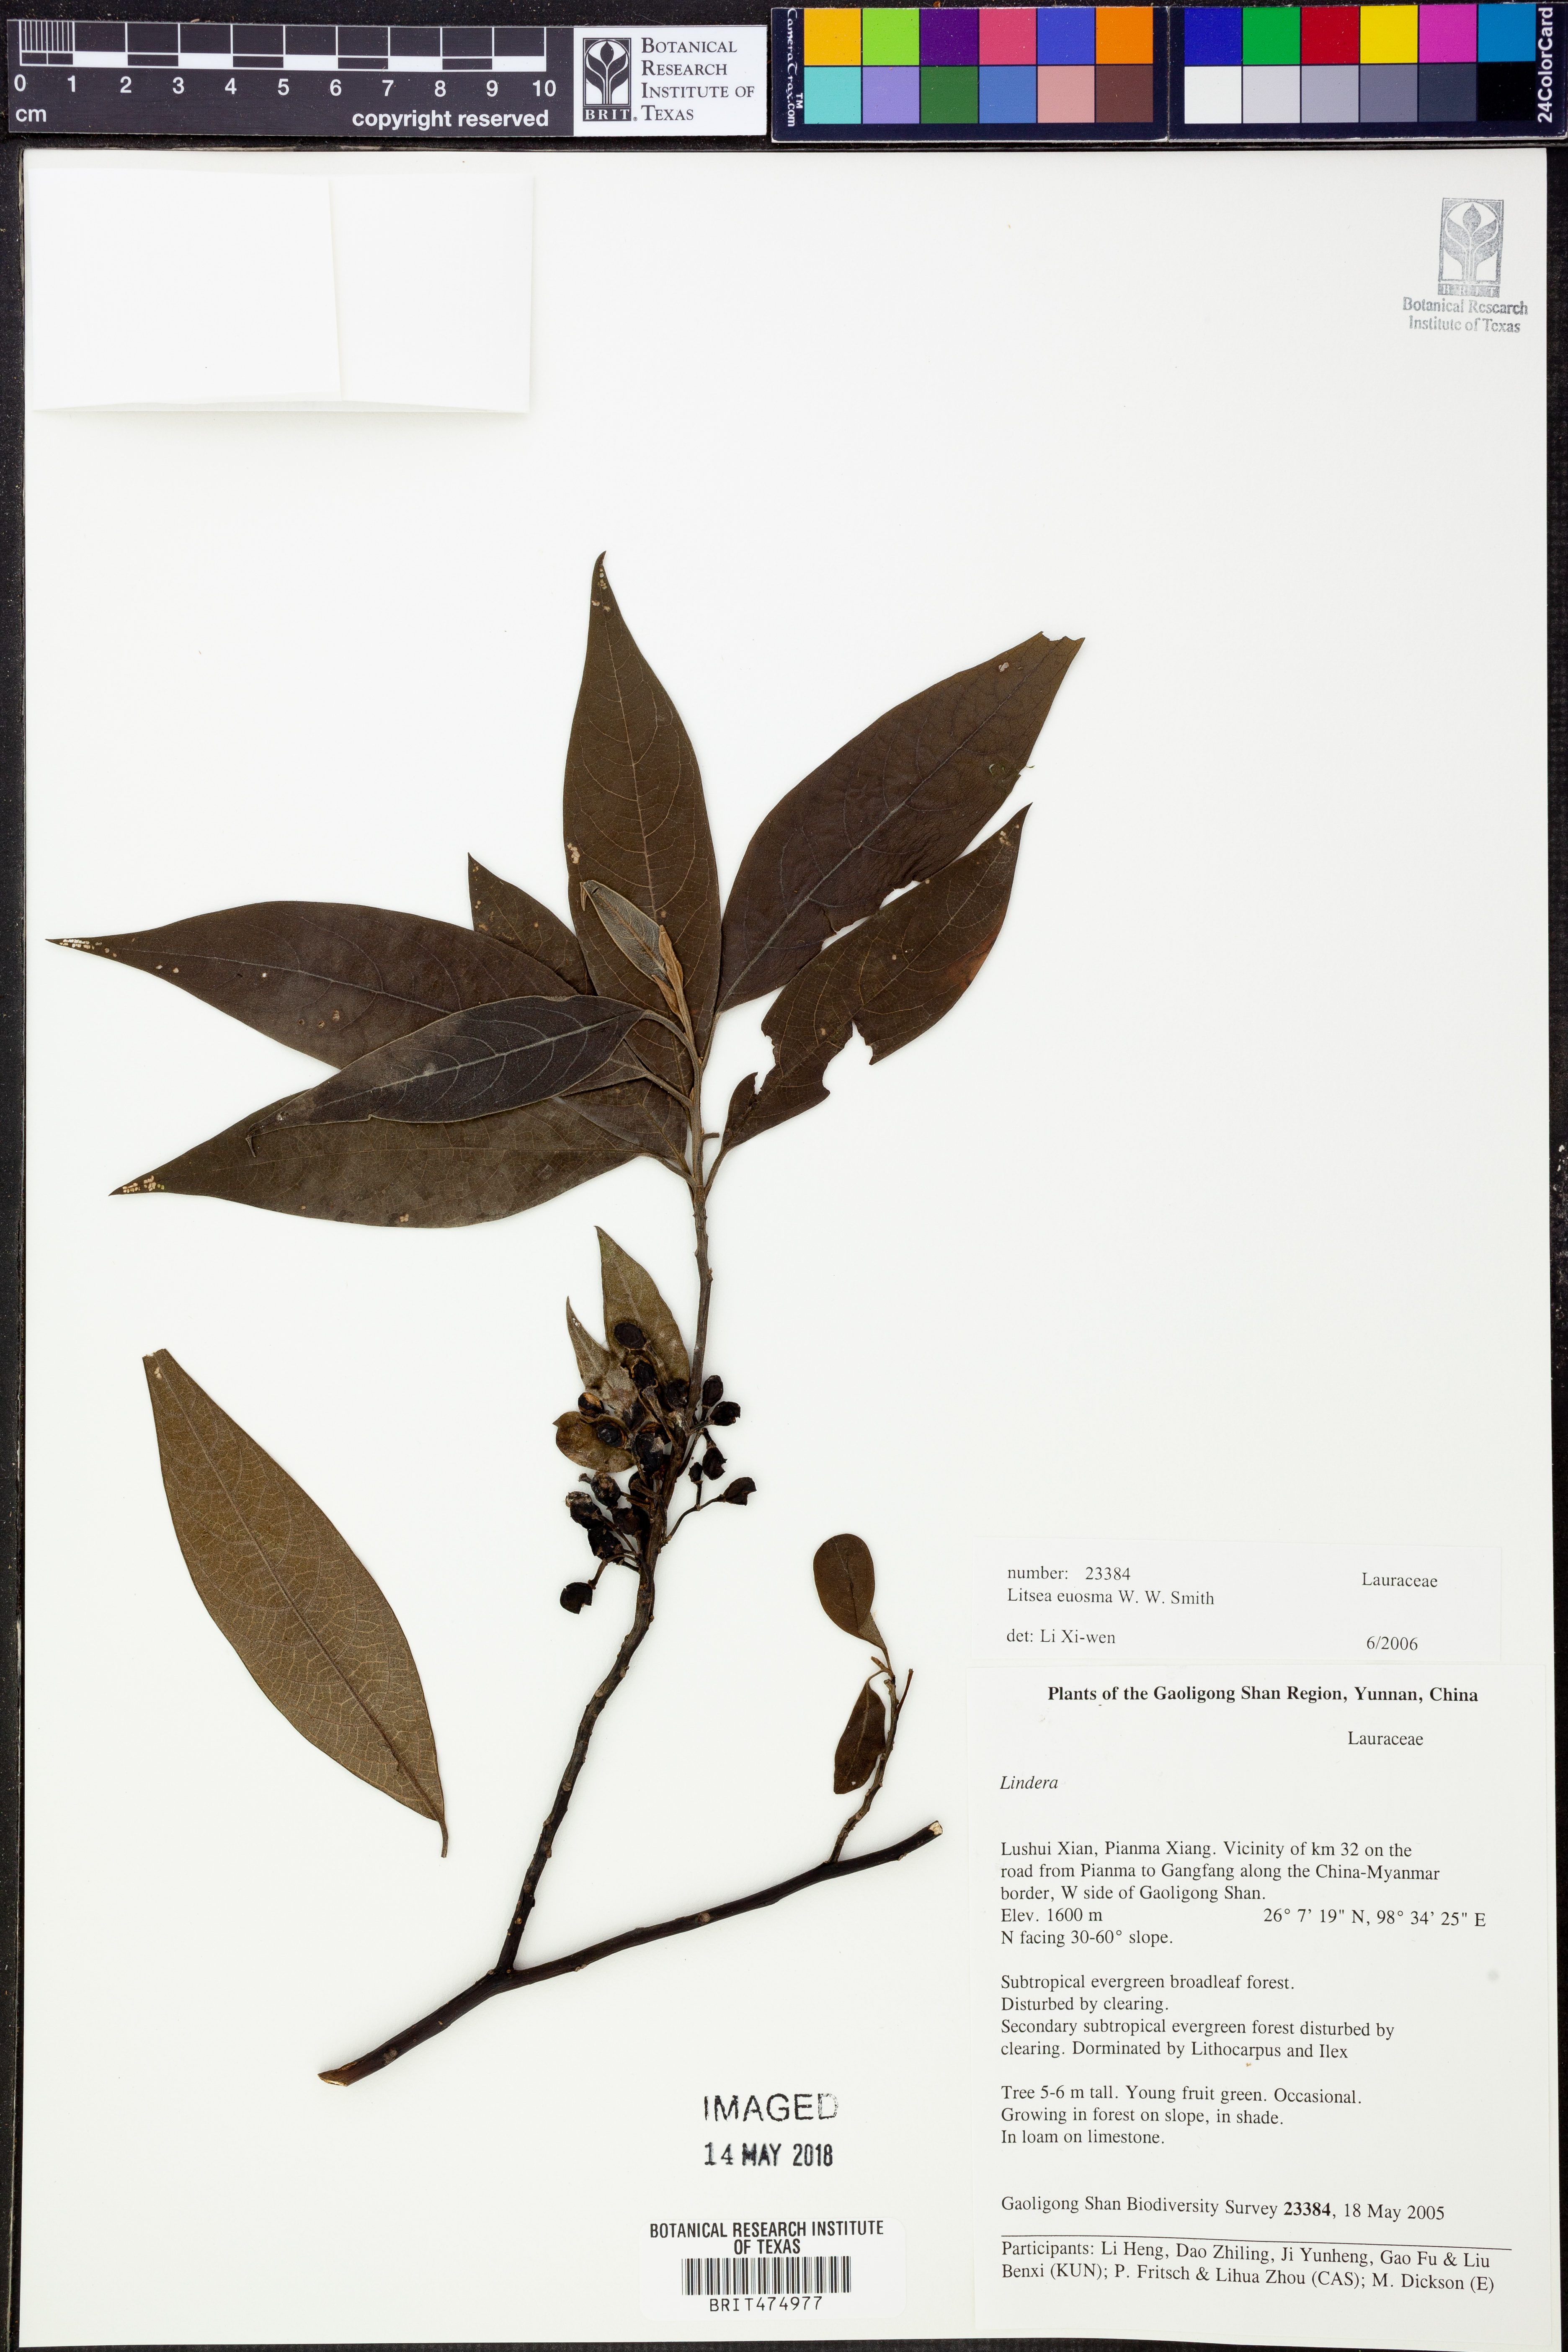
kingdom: Plantae
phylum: Tracheophyta
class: Magnoliopsida
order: Laurales
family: Lauraceae
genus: Litsea
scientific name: Litsea euosma
